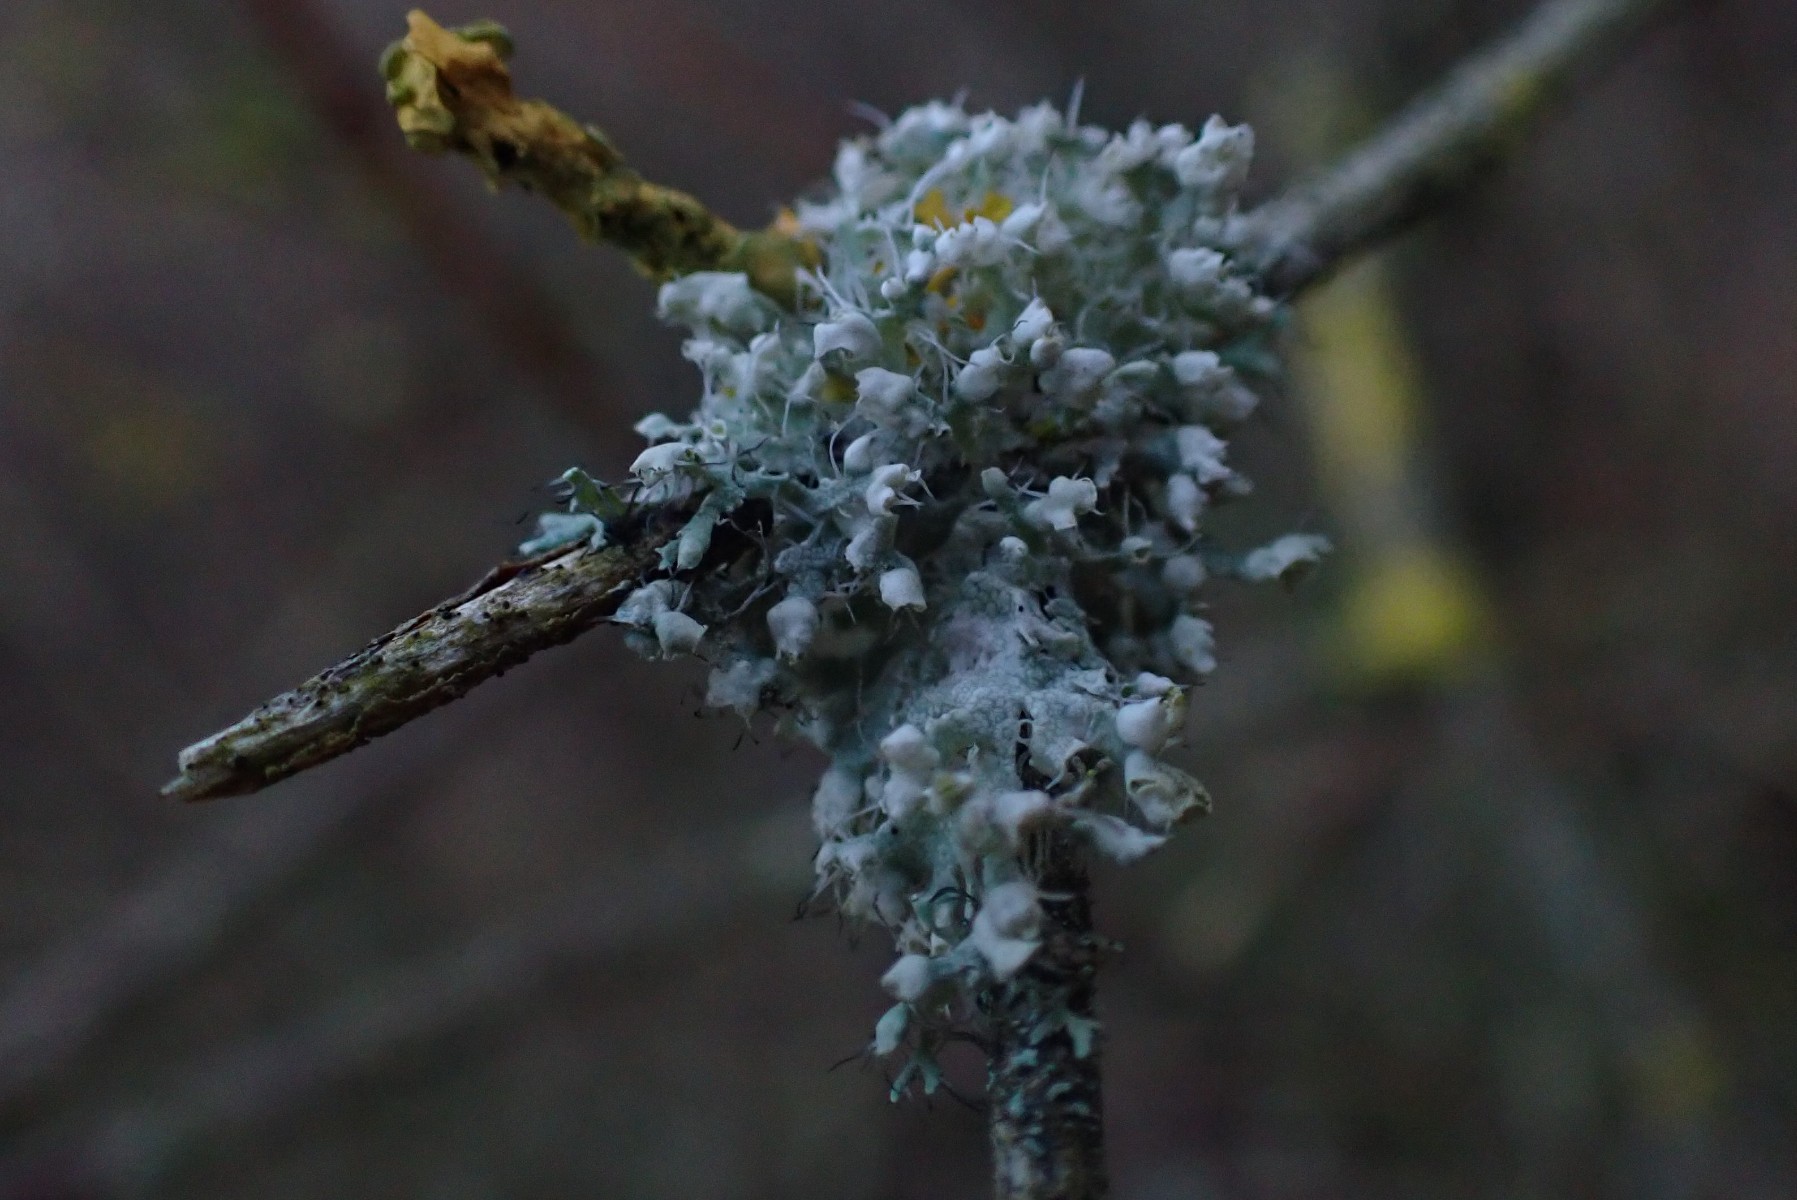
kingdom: Fungi
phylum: Ascomycota
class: Lecanoromycetes
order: Caliciales
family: Physciaceae
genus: Physcia
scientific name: Physcia adscendens
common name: hætte-rosetlav
